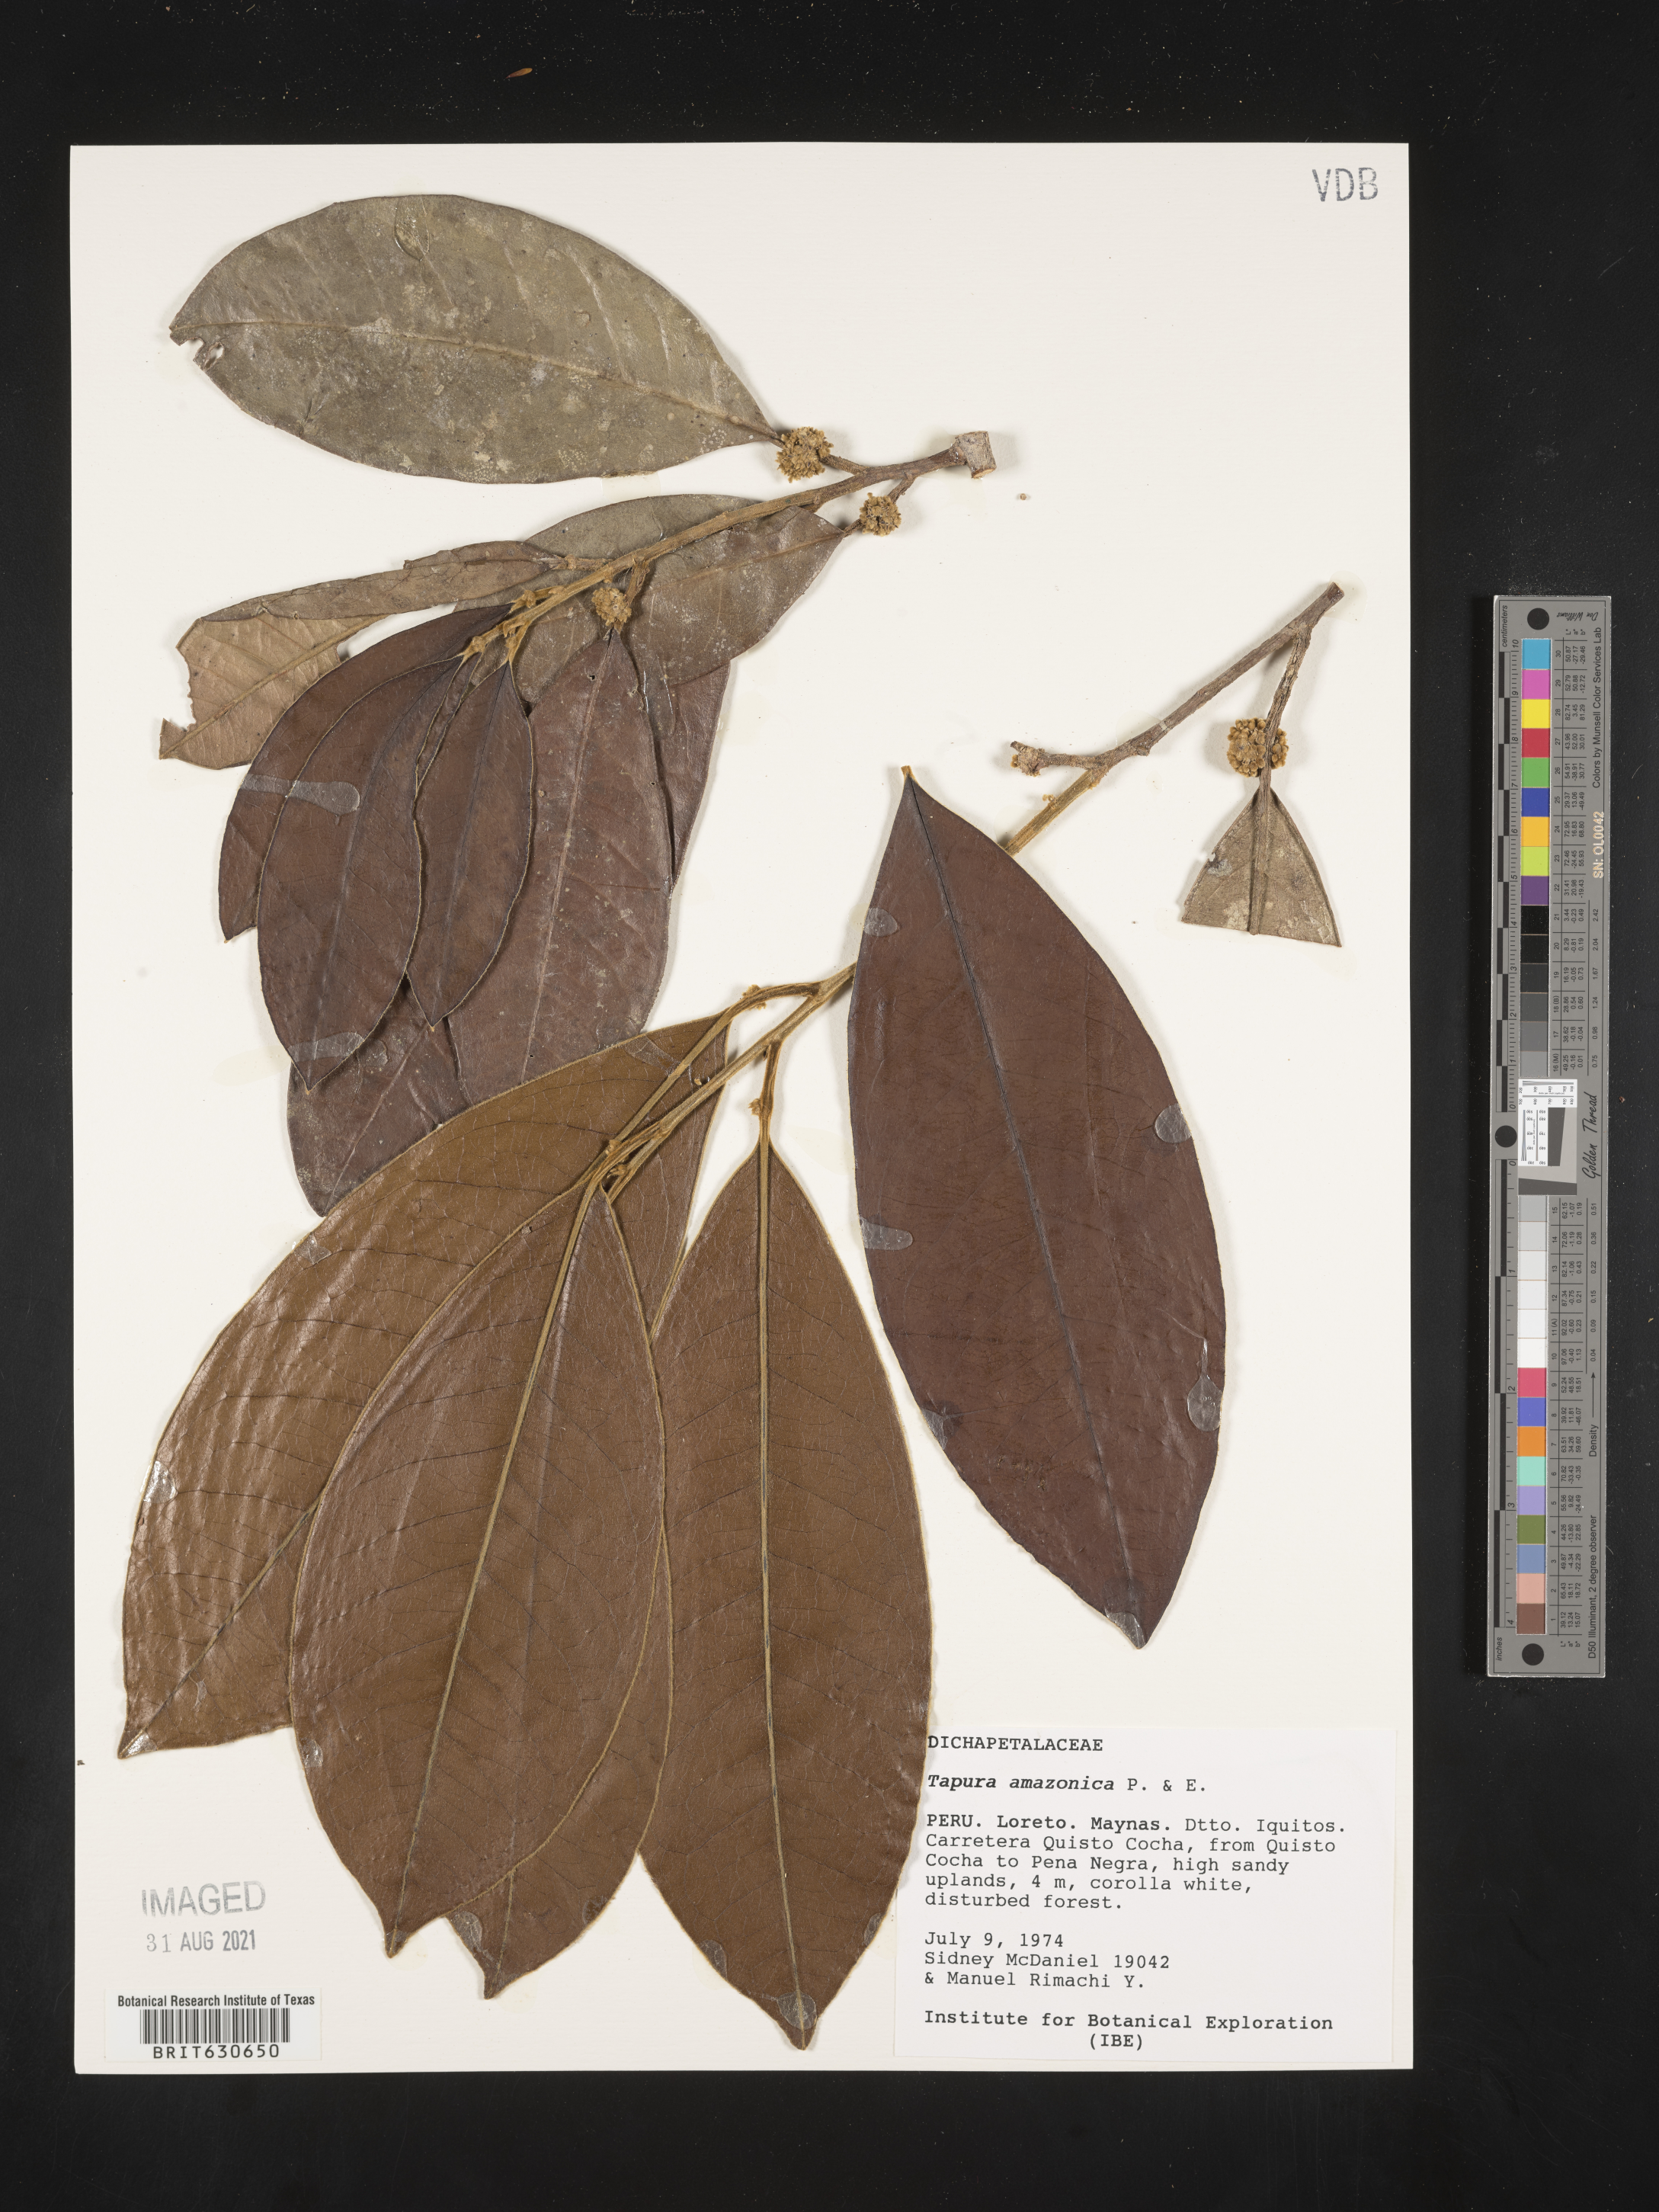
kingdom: Plantae
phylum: Tracheophyta
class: Magnoliopsida
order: Malpighiales
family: Dichapetalaceae
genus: Tapura
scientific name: Tapura
